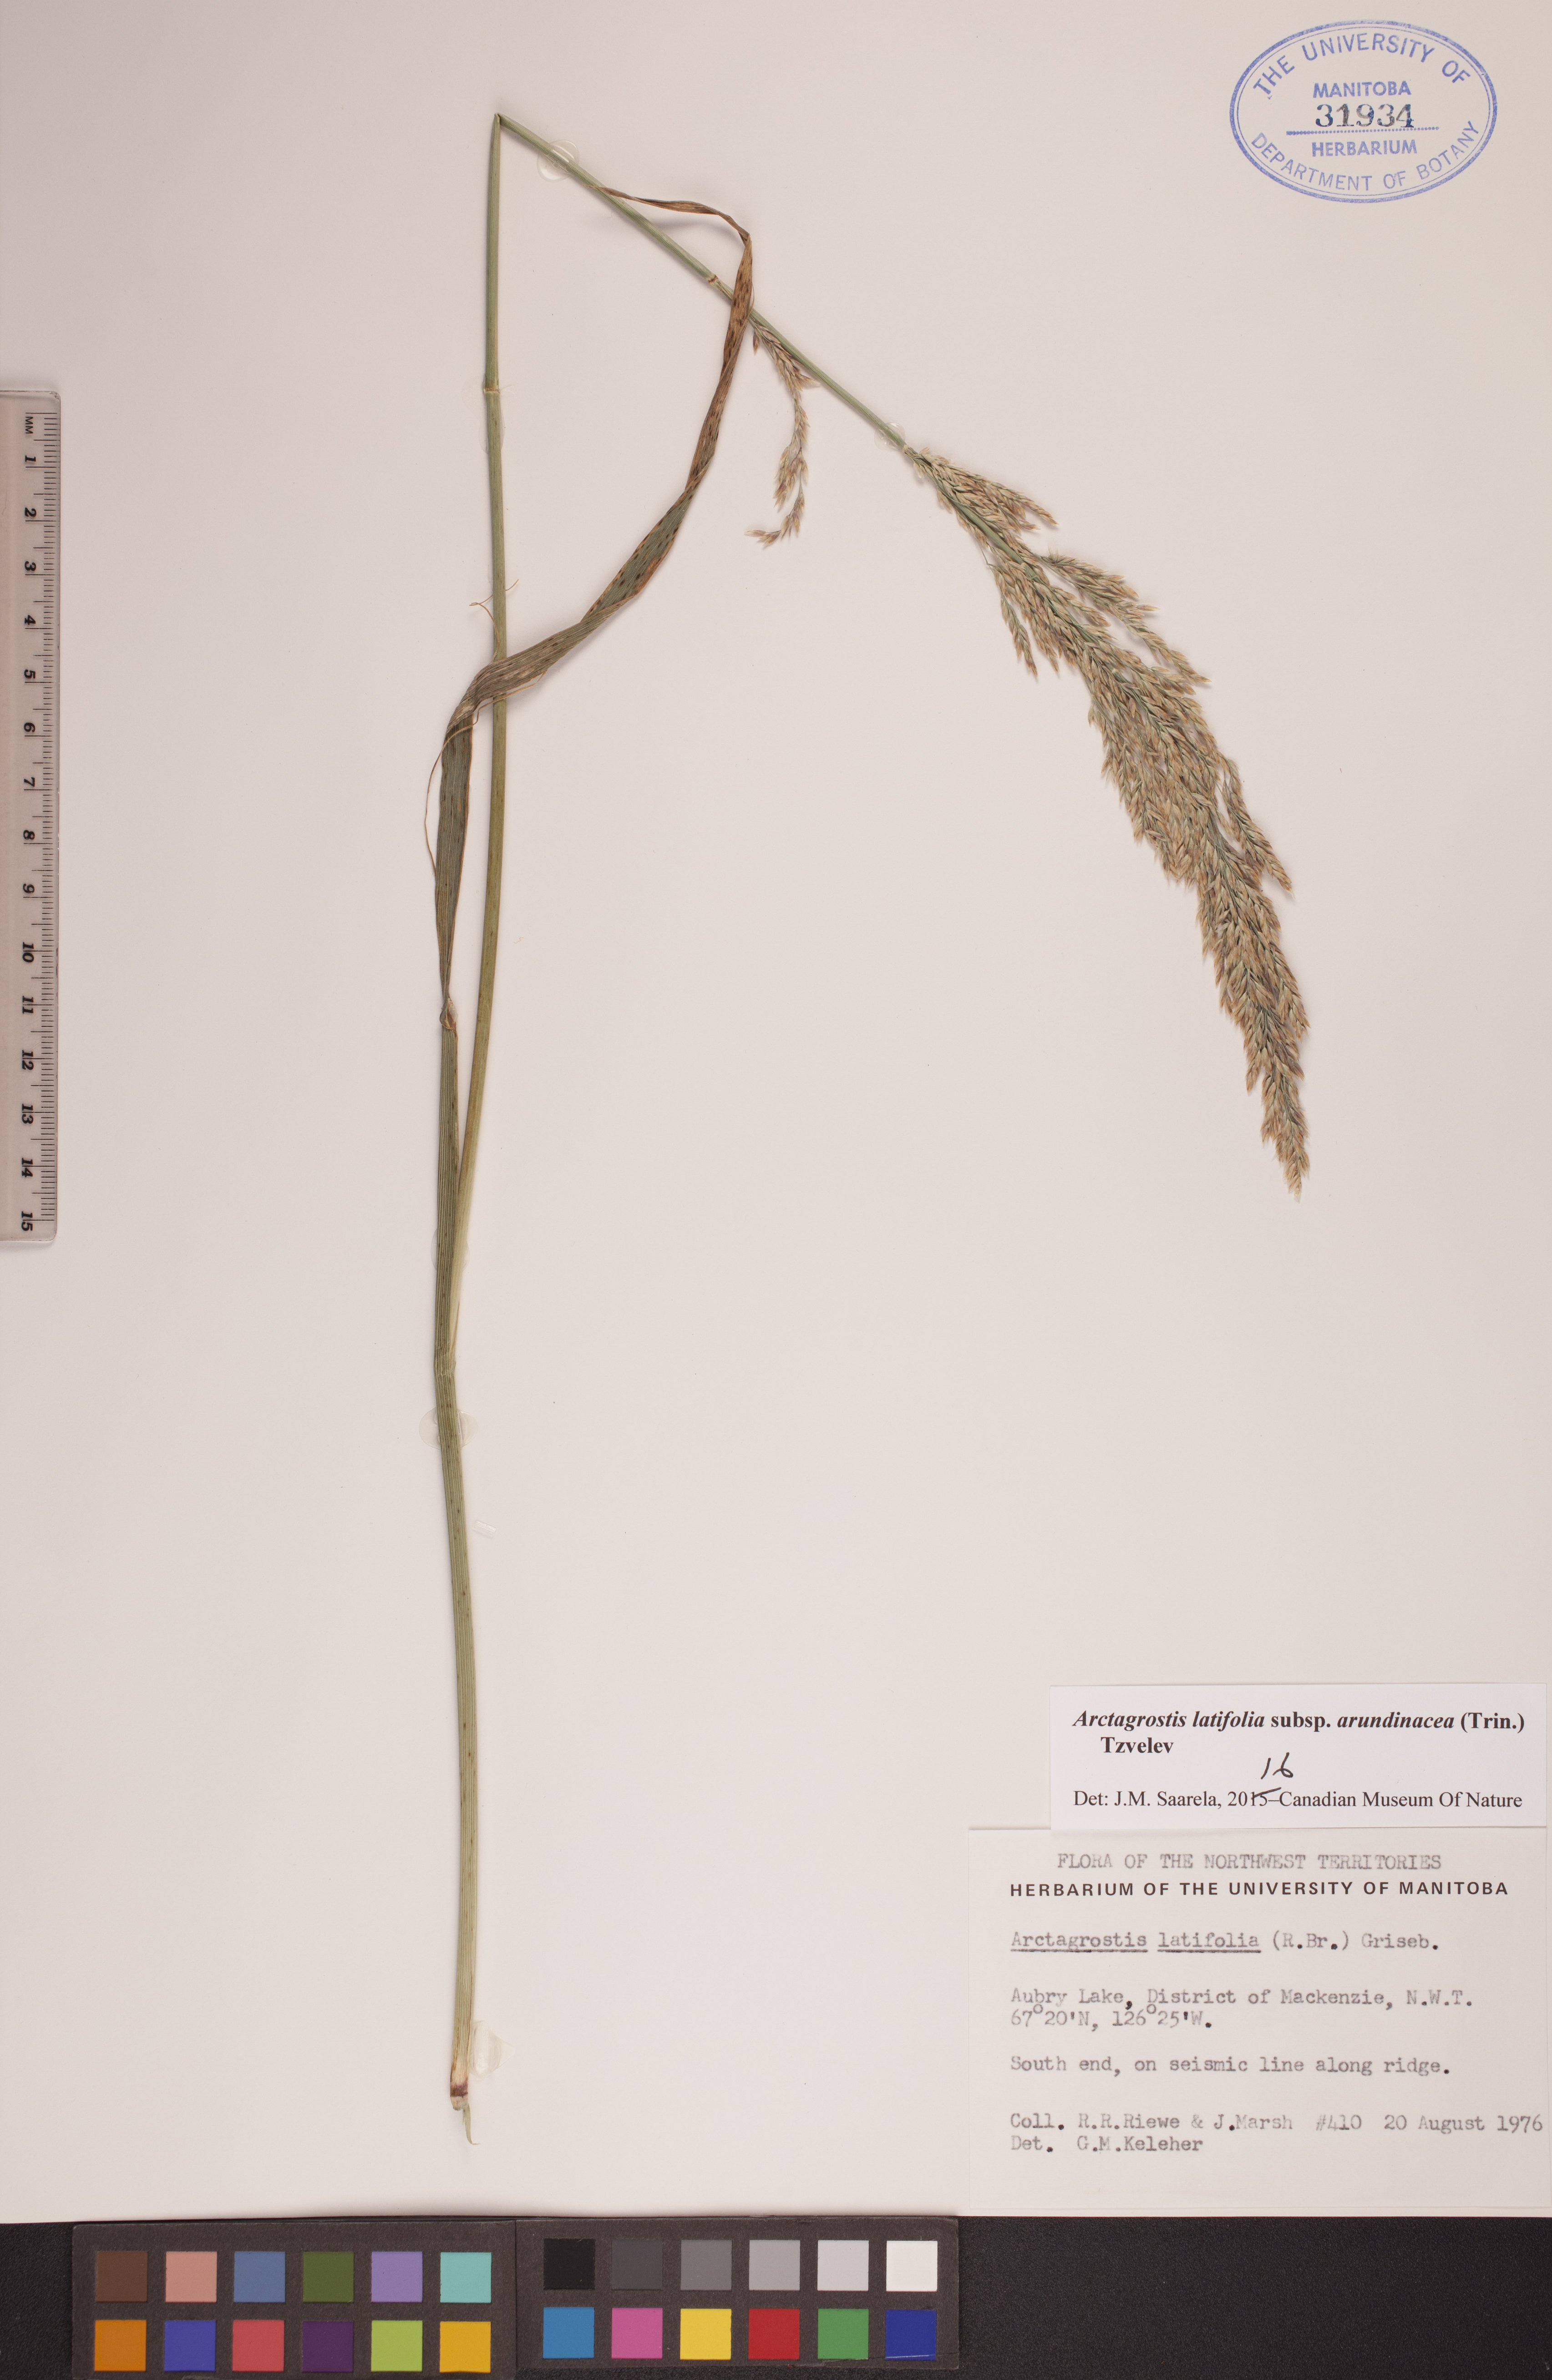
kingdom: Plantae
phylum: Tracheophyta
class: Liliopsida
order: Poales
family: Poaceae
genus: Arctagrostis
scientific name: Arctagrostis arundinacea
